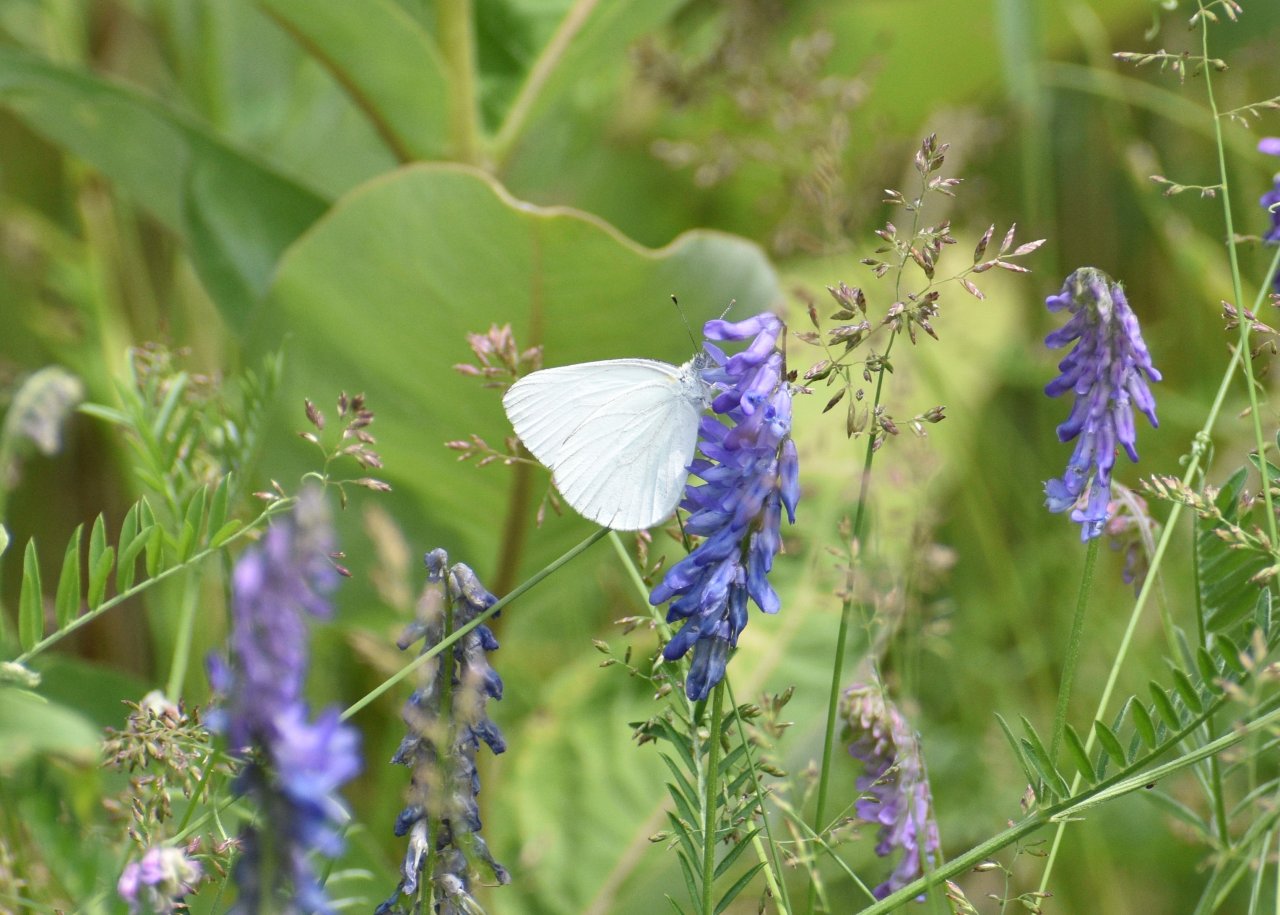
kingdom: Animalia
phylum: Arthropoda
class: Insecta
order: Lepidoptera
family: Pieridae
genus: Pieris
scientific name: Pieris oleracea
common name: Mustard White
